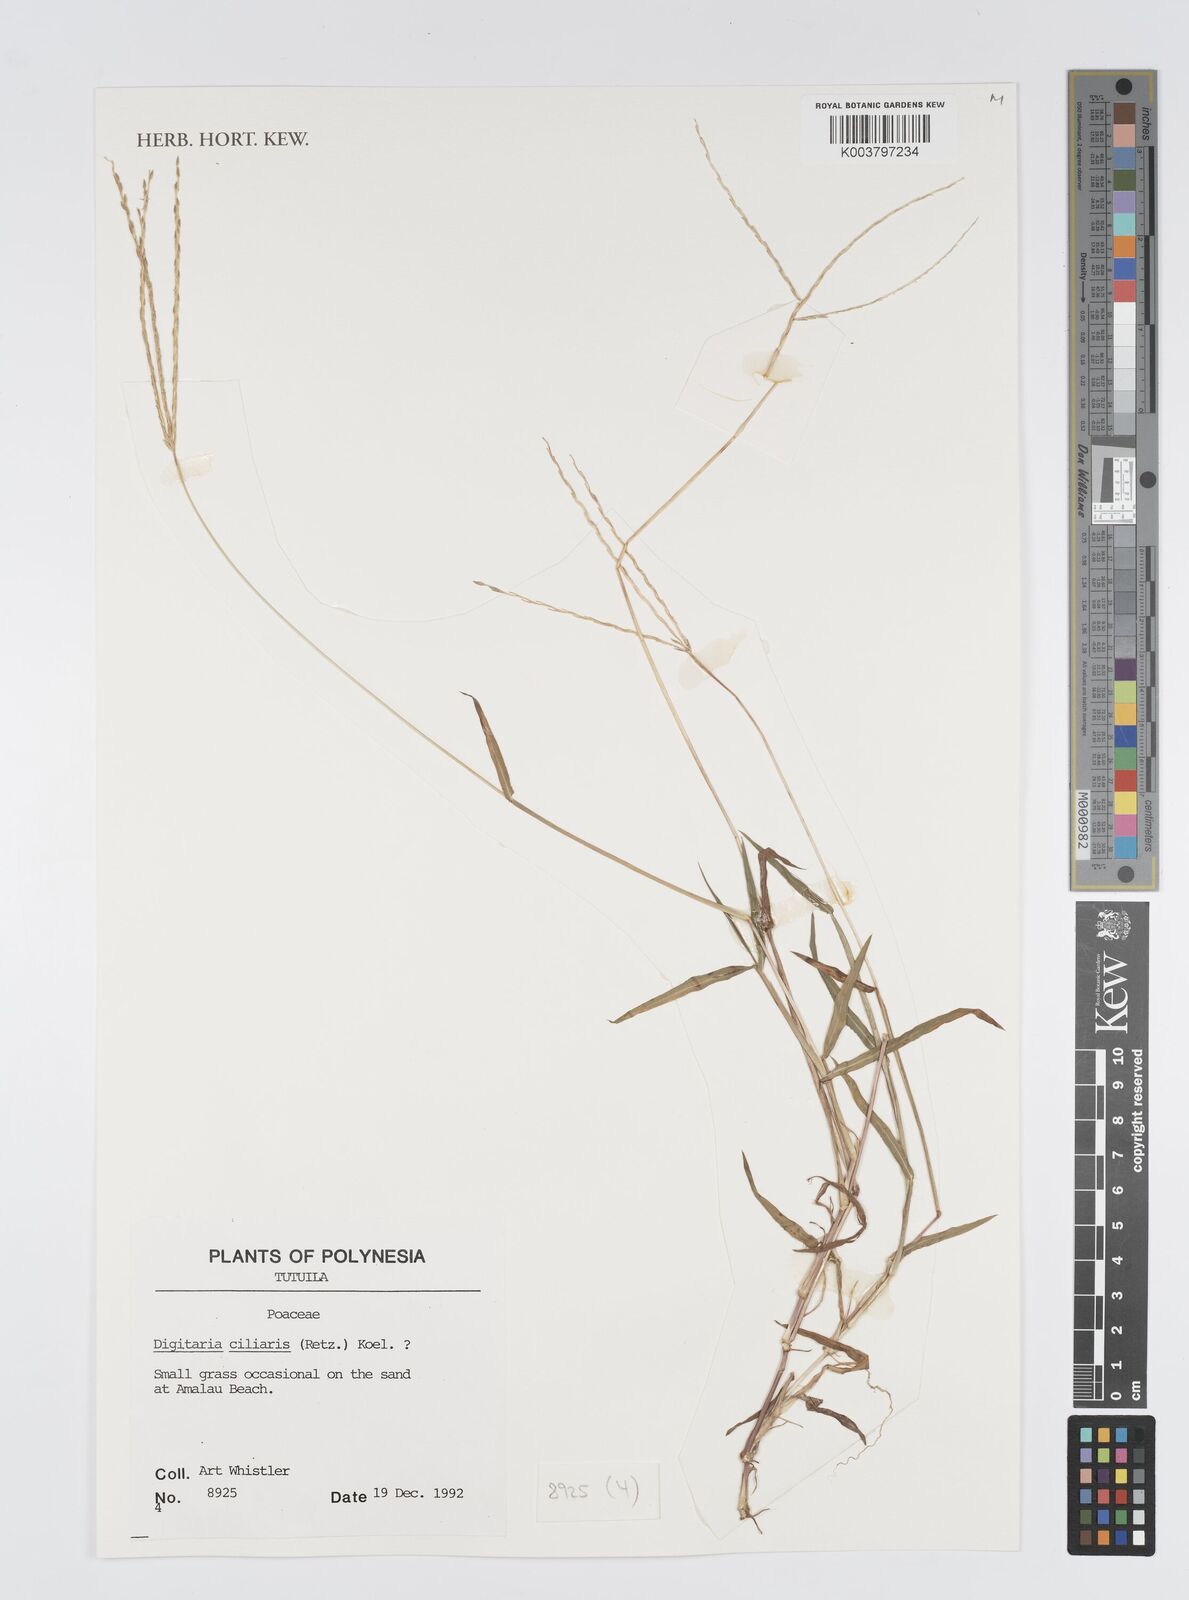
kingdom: Plantae
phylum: Tracheophyta
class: Liliopsida
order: Poales
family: Poaceae
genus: Digitaria
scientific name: Digitaria ciliaris
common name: Tropical finger-grass
